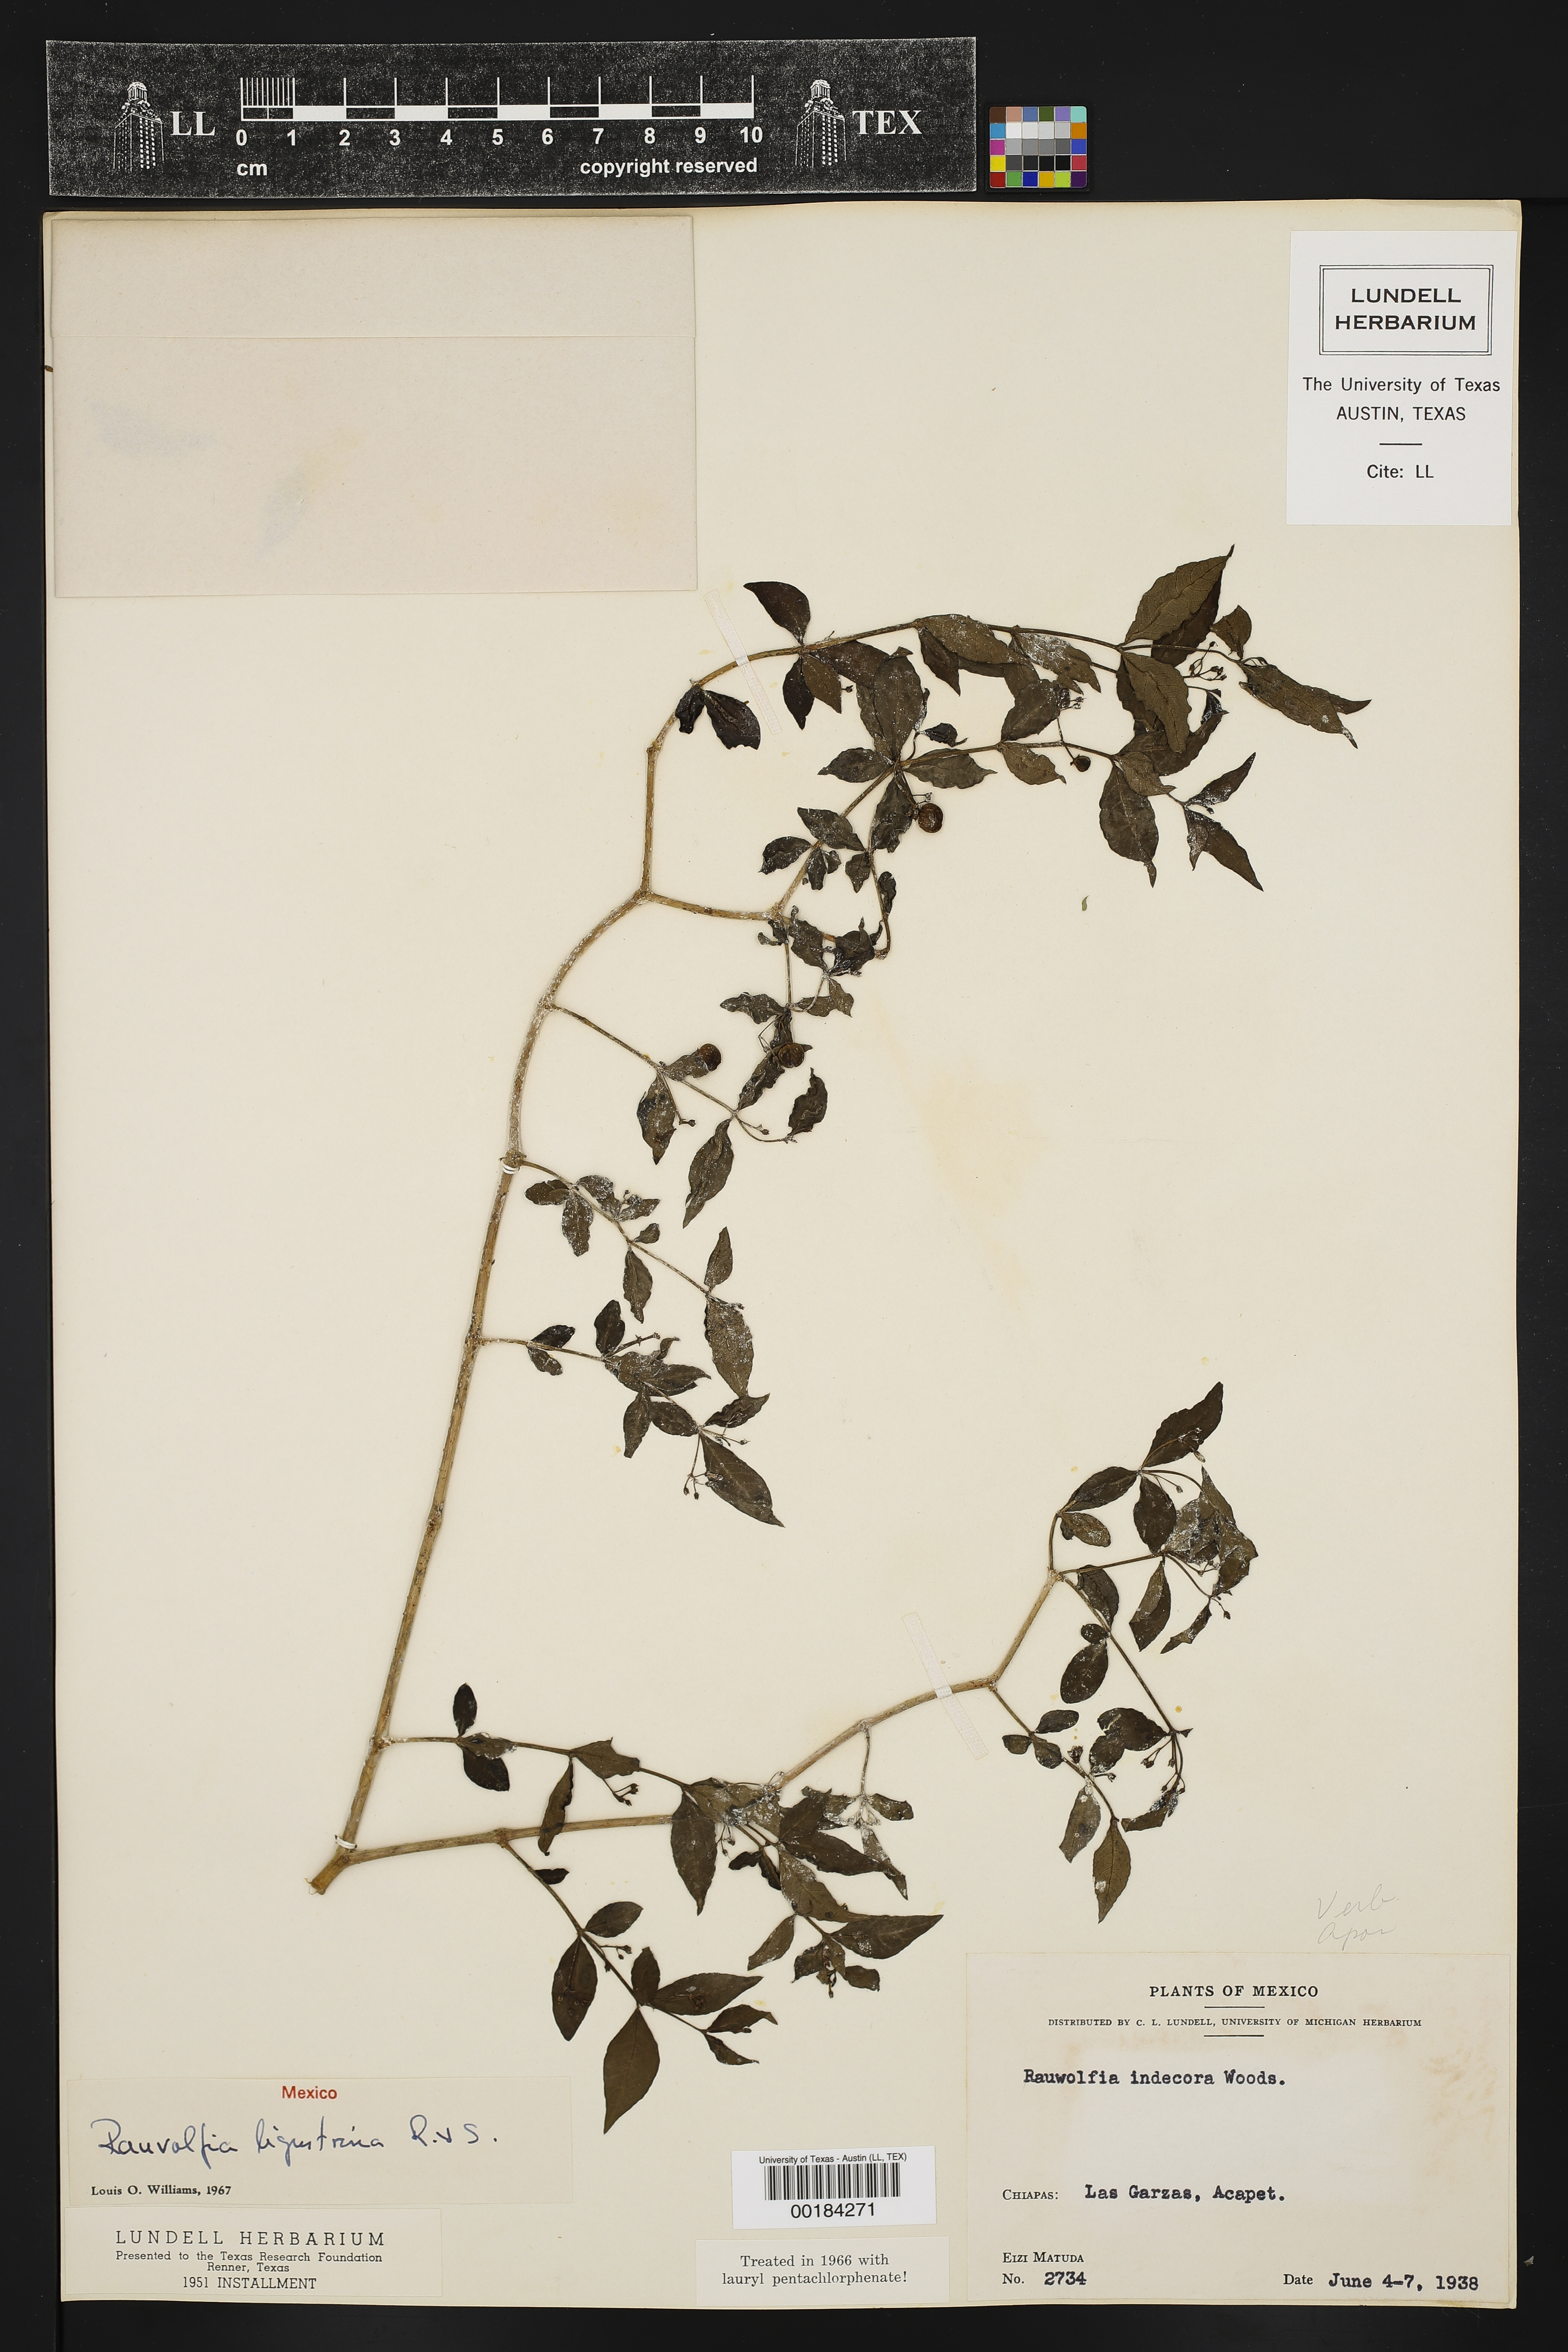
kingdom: Plantae
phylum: Tracheophyta
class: Magnoliopsida
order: Gentianales
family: Apocynaceae
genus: Rauvolfia
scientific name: Rauvolfia ligustrina
